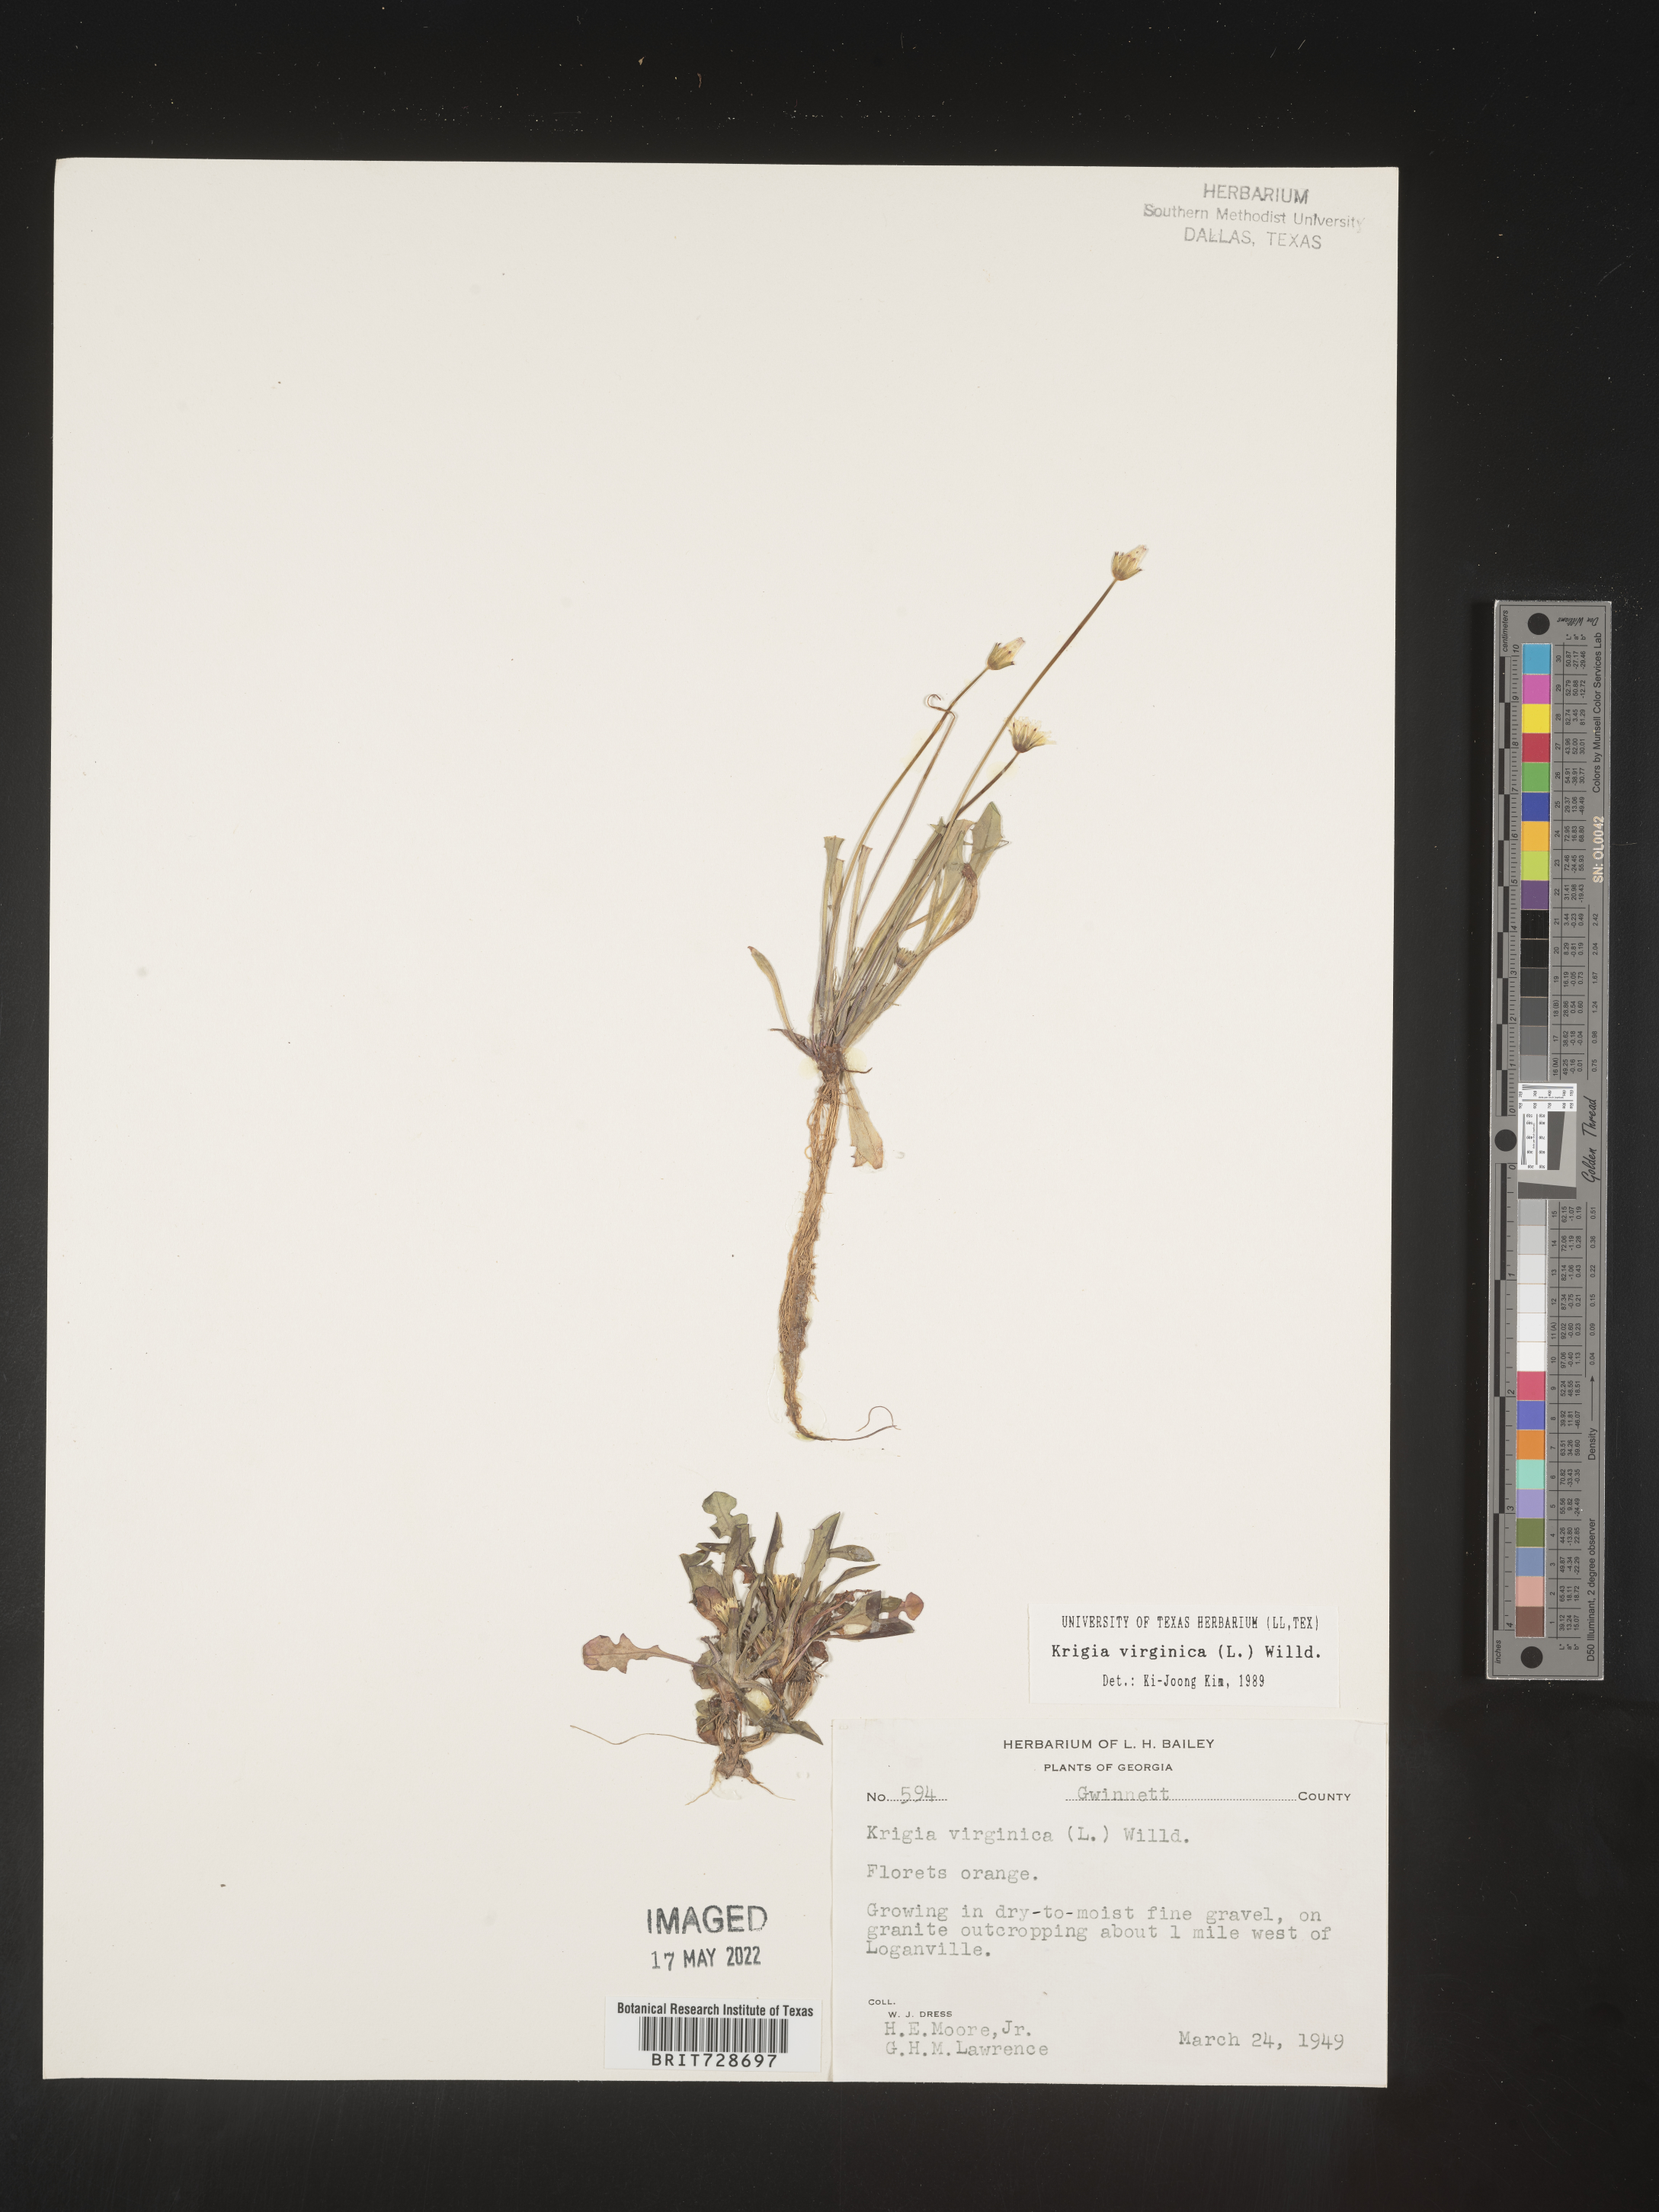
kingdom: Plantae
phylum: Tracheophyta
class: Magnoliopsida
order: Asterales
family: Asteraceae
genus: Krigia
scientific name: Krigia virginica
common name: Virginia dwarf-dandelion
